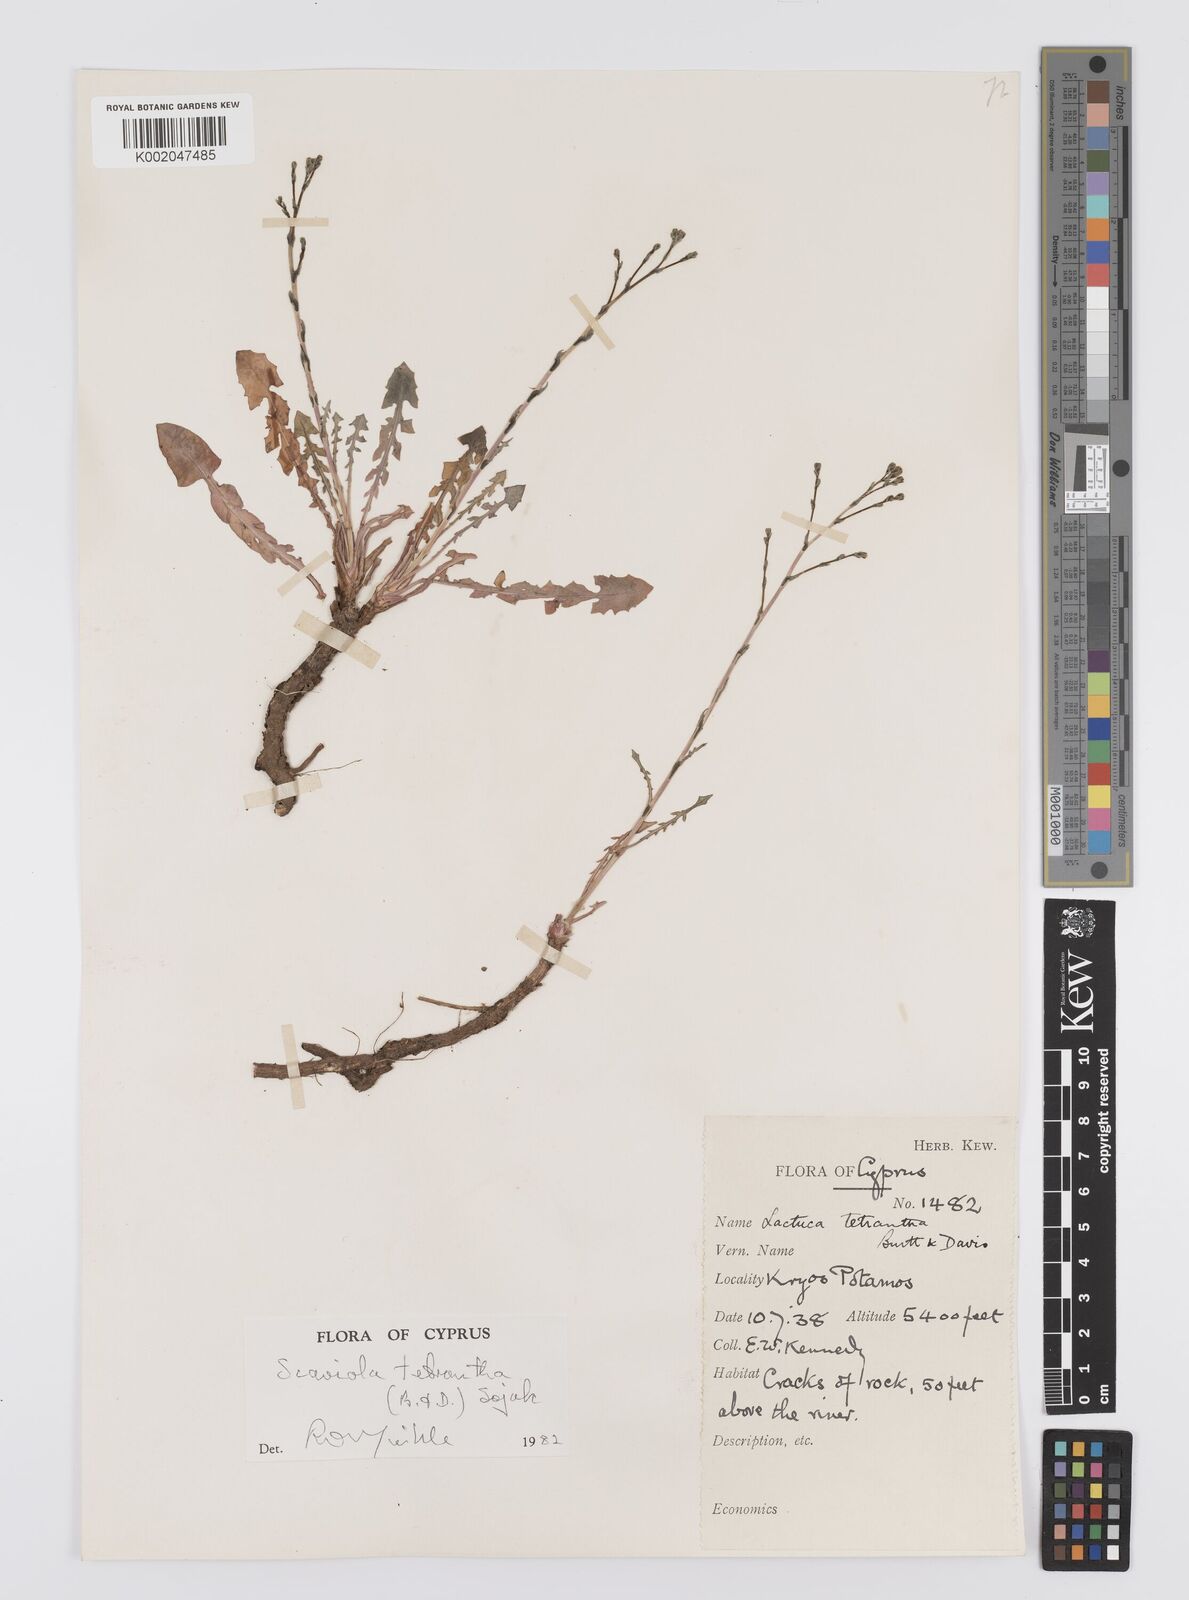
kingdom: Plantae
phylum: Tracheophyta
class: Magnoliopsida
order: Asterales
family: Asteraceae
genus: Lactuca
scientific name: Lactuca tetrantha
